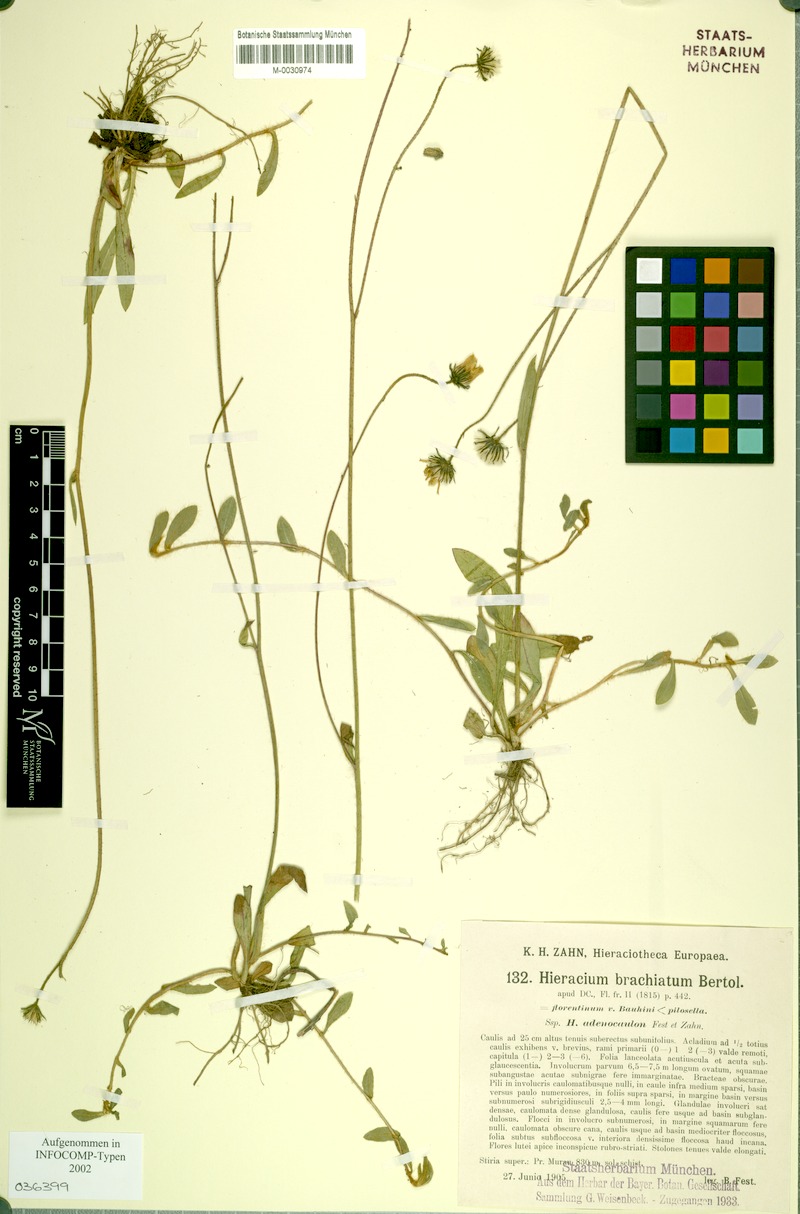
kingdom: Plantae
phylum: Tracheophyta
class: Magnoliopsida
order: Asterales
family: Asteraceae
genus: Pilosella
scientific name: Pilosella acutifolia
